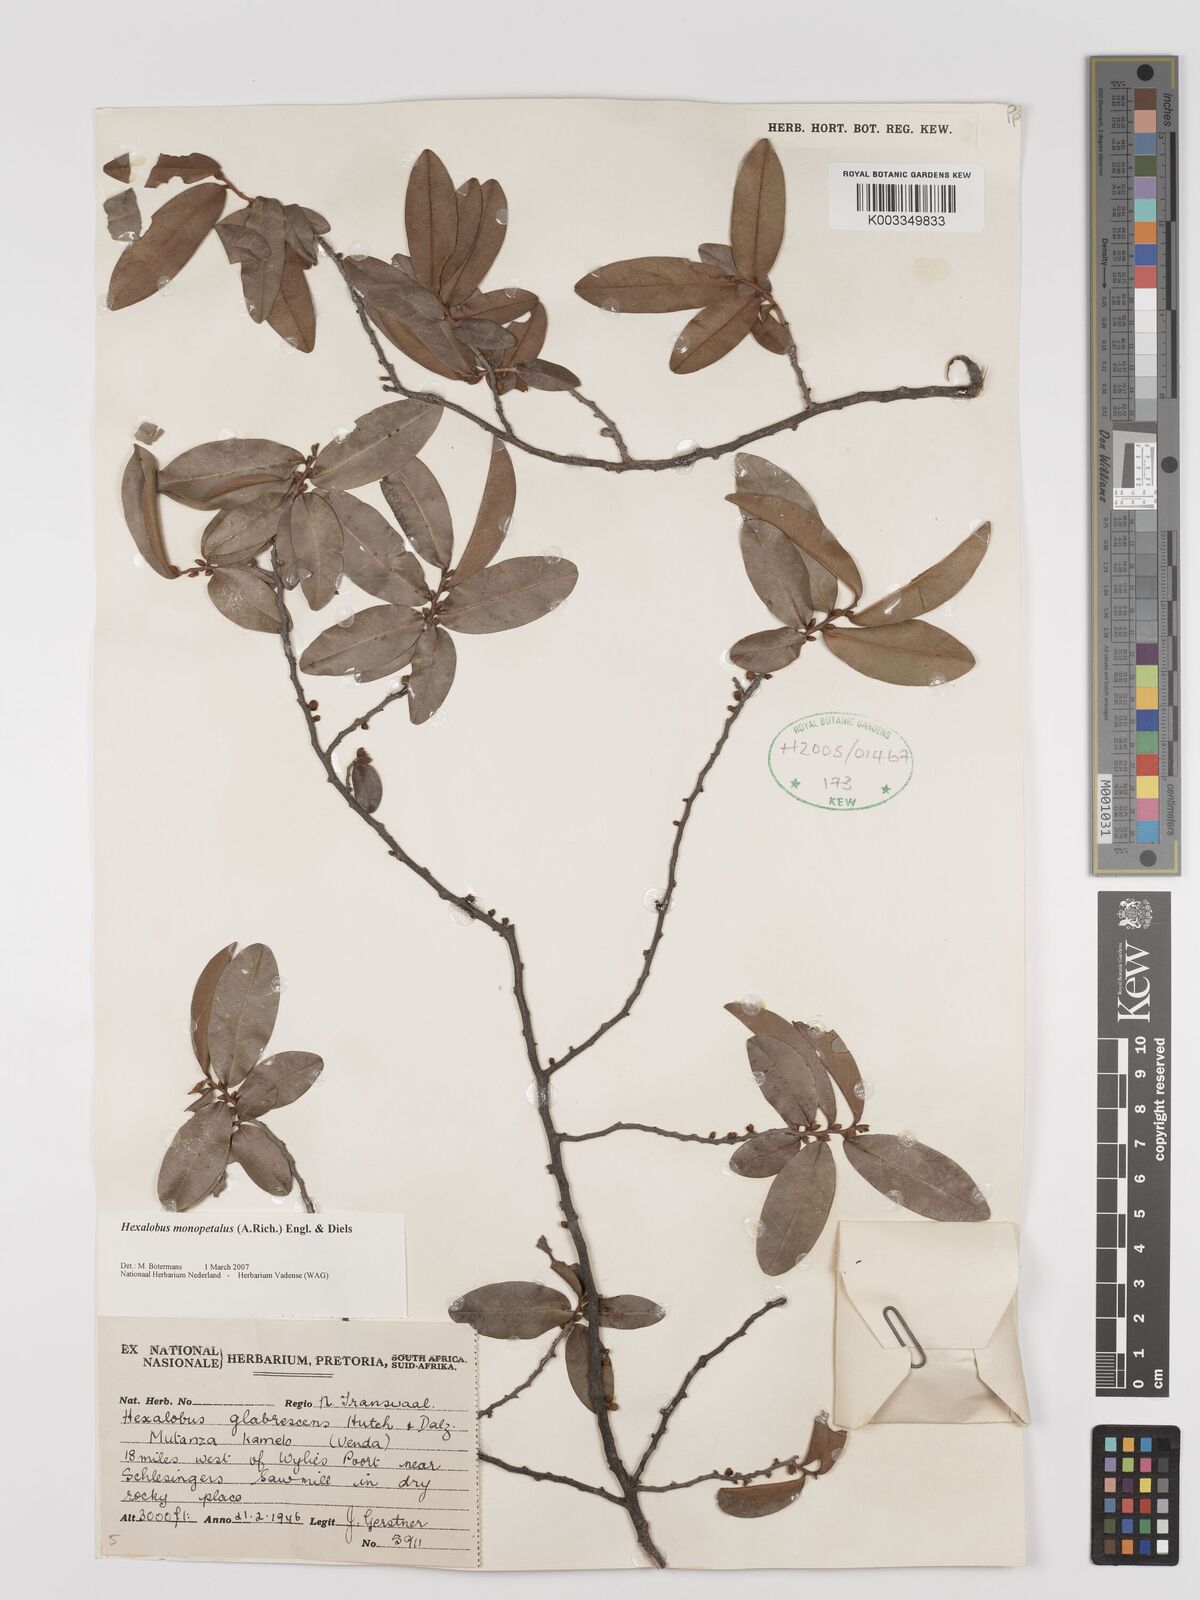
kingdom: Plantae
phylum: Tracheophyta
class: Magnoliopsida
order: Magnoliales
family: Annonaceae
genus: Hexalobus
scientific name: Hexalobus monopetalus
